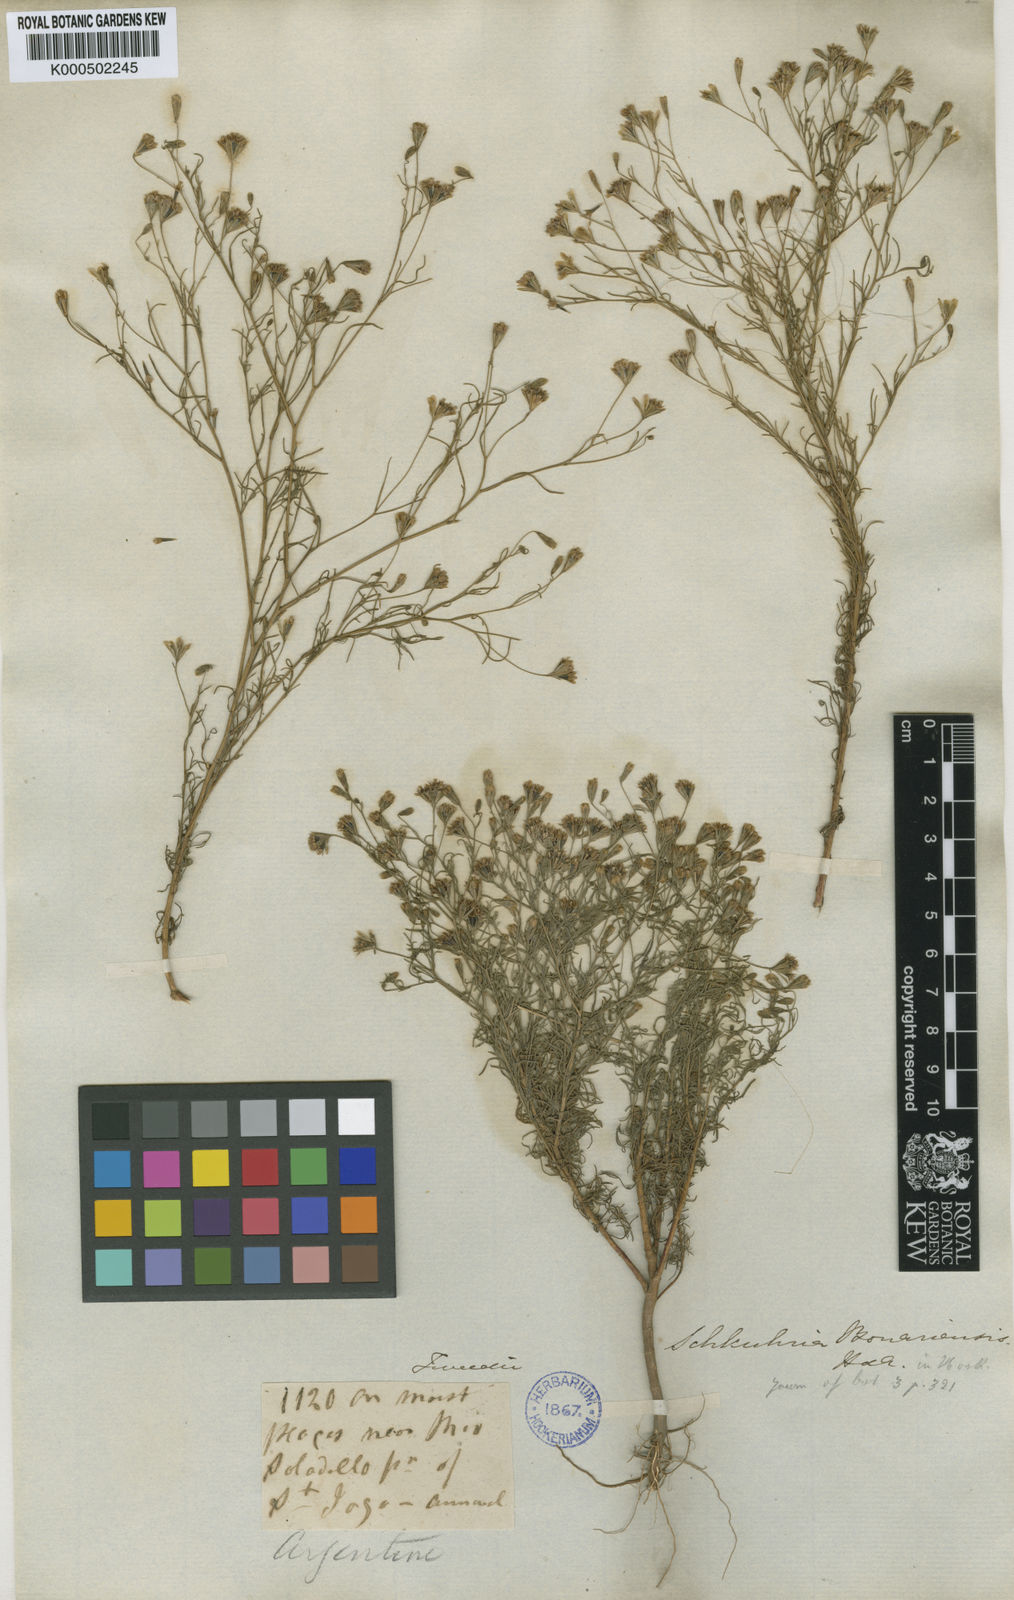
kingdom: Plantae
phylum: Tracheophyta
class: Magnoliopsida
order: Asterales
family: Asteraceae
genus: Schkuhria
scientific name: Schkuhria pinnata
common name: Dwarf marigold
